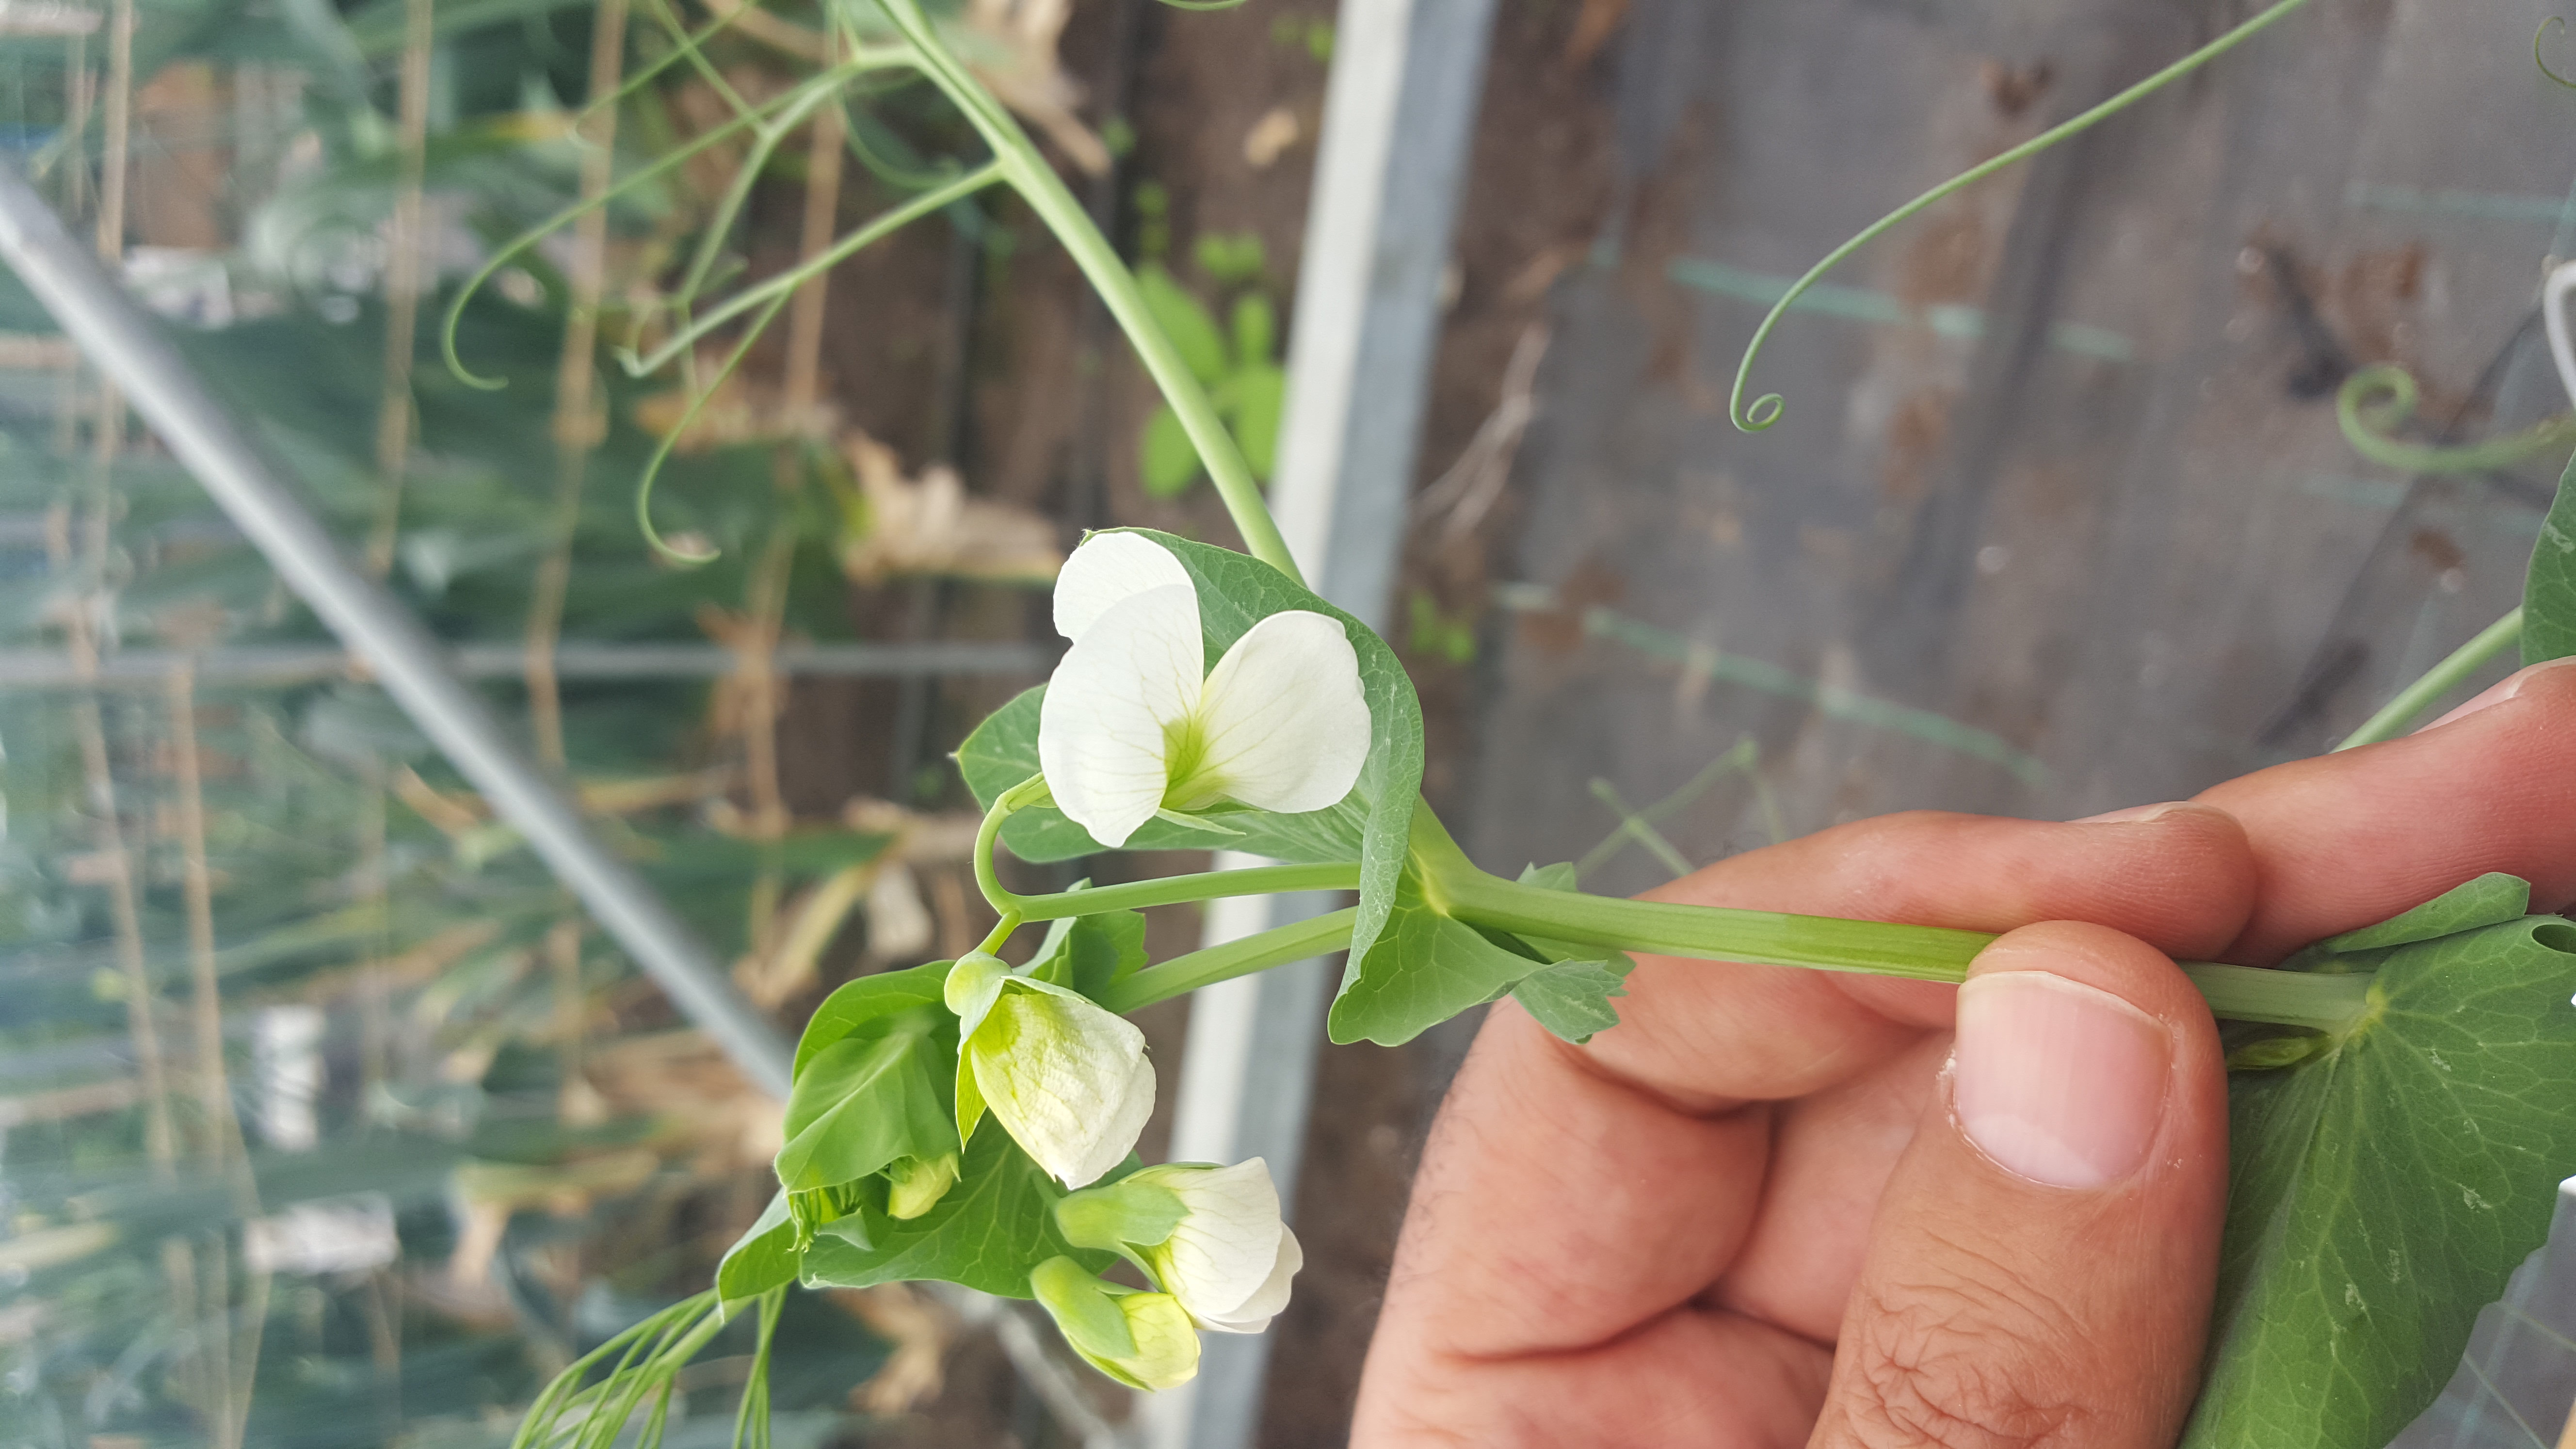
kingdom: Plantae
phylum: Tracheophyta
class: Magnoliopsida
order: Fabales
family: Fabaceae
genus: Lathyrus
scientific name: Lathyrus oleraceus
